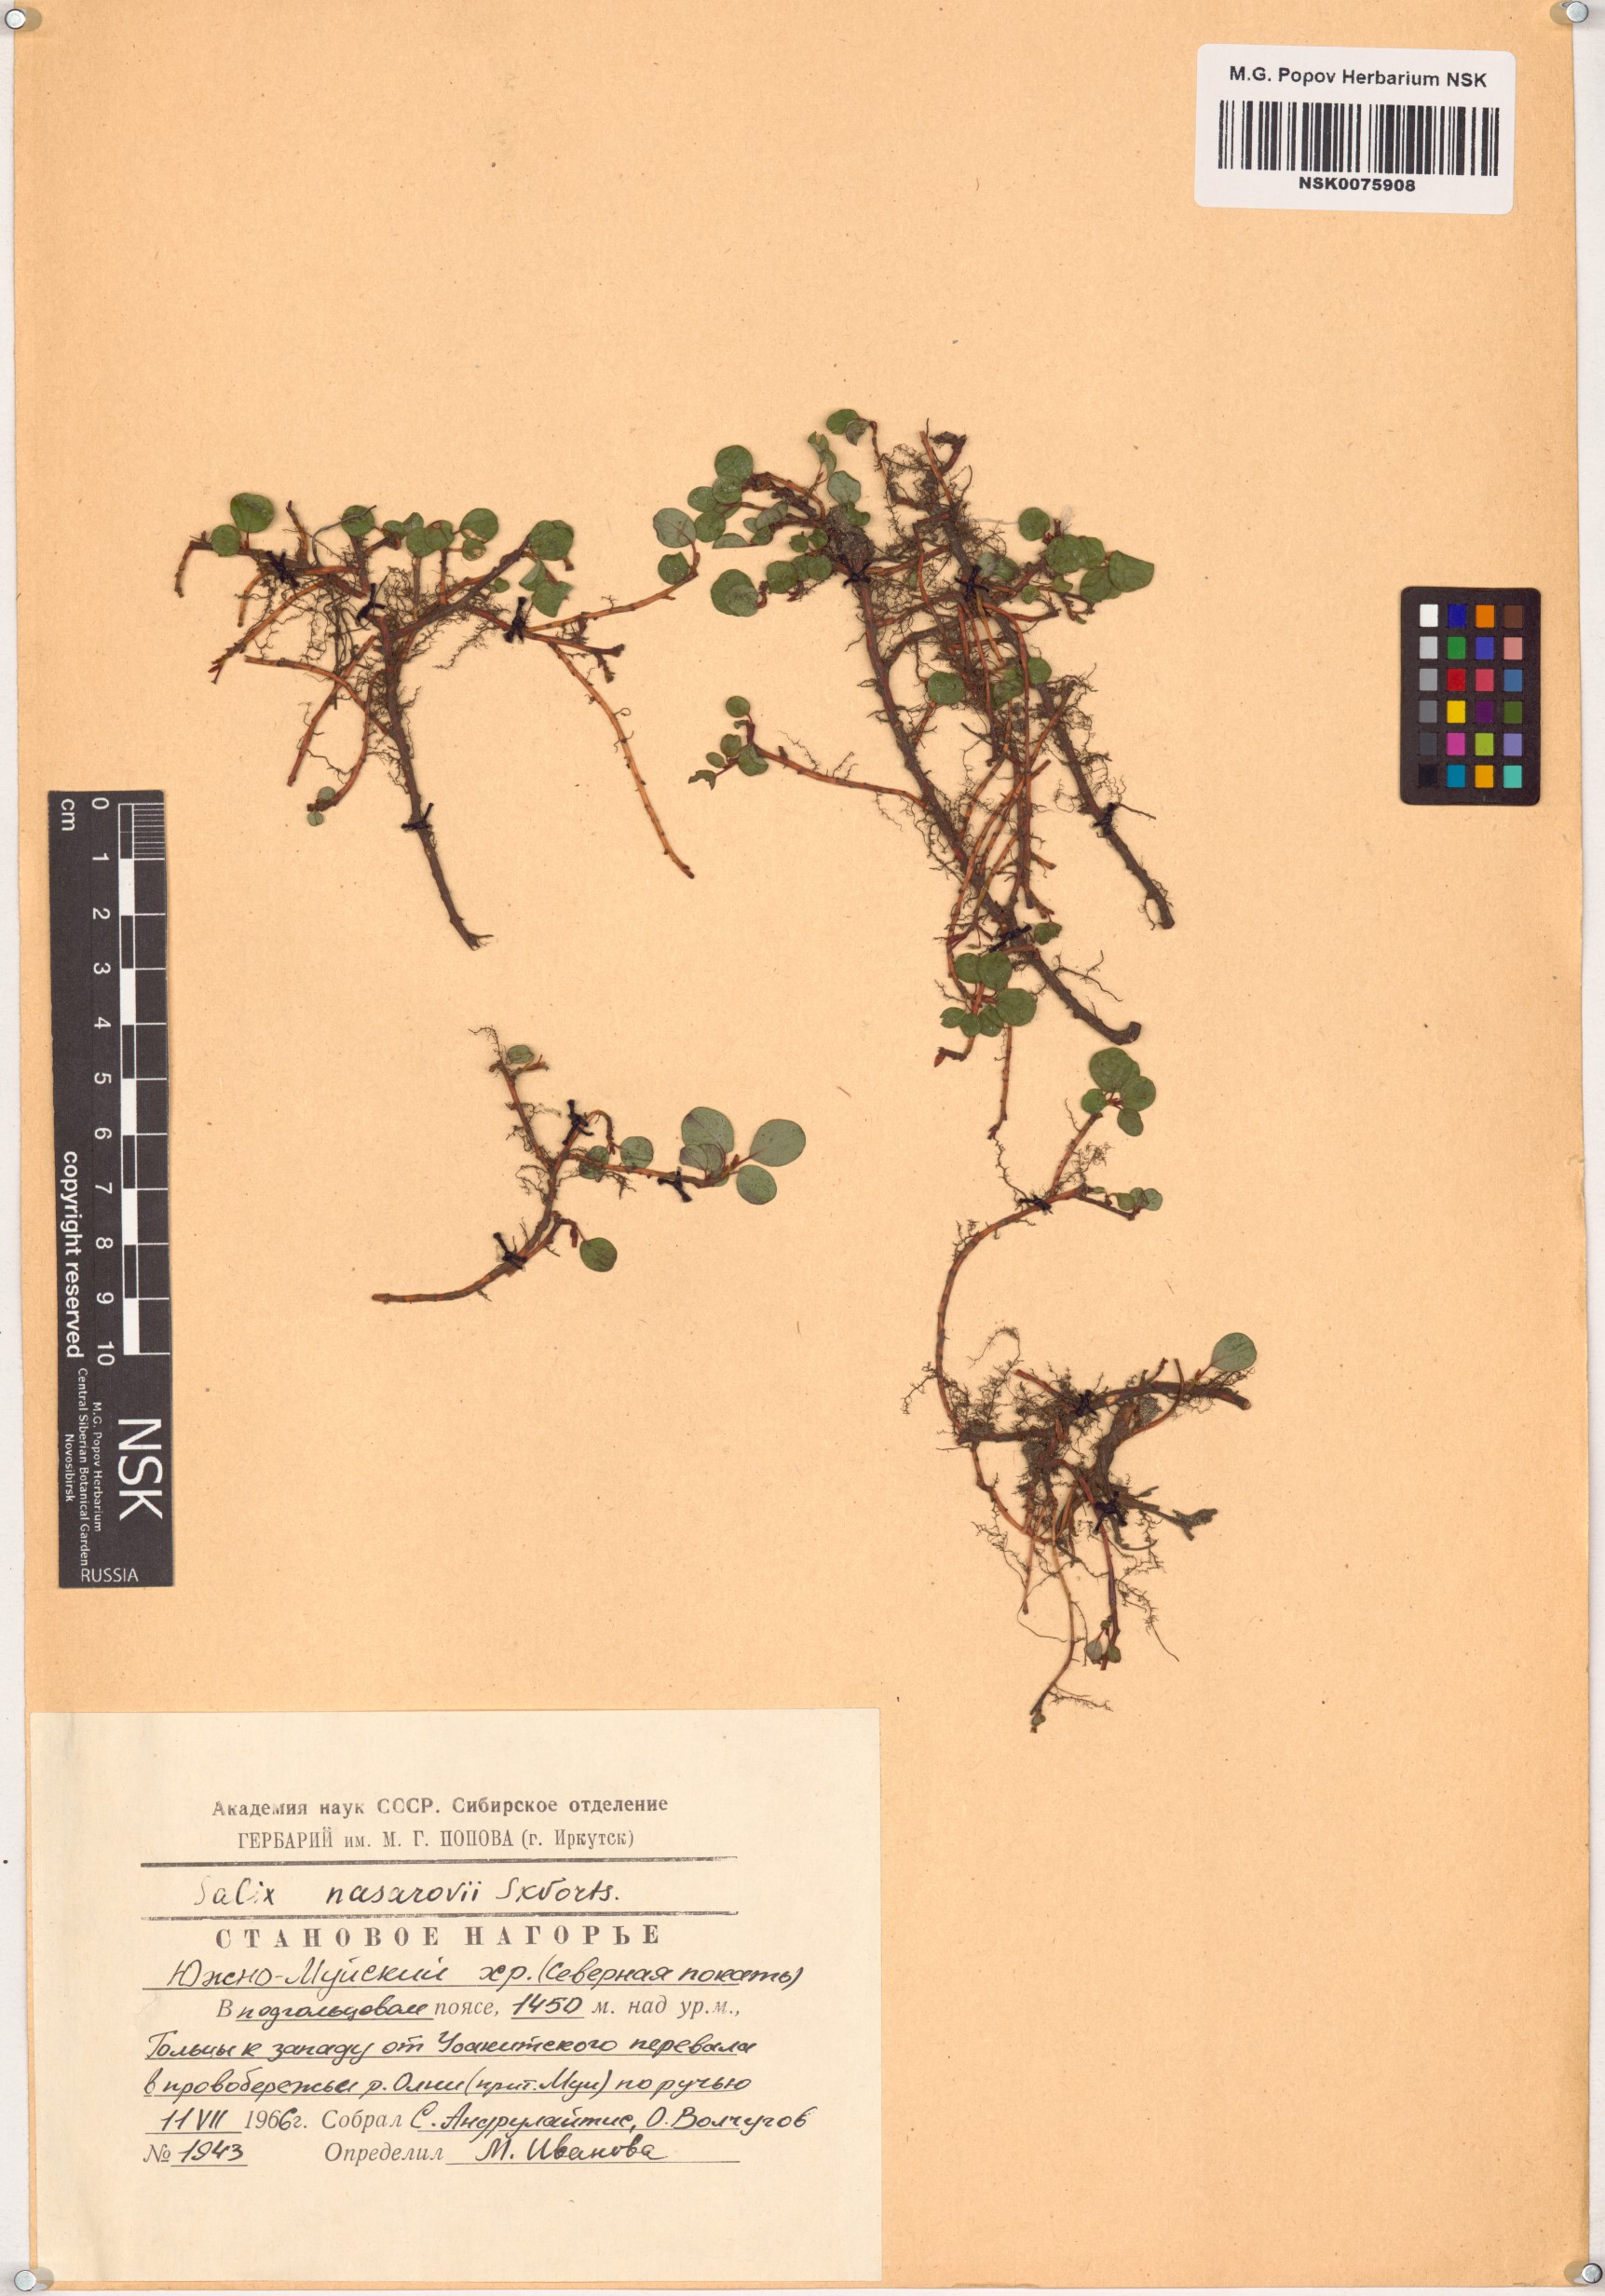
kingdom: Plantae
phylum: Tracheophyta
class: Magnoliopsida
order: Malpighiales
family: Salicaceae
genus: Salix
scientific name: Salix nasarovii
